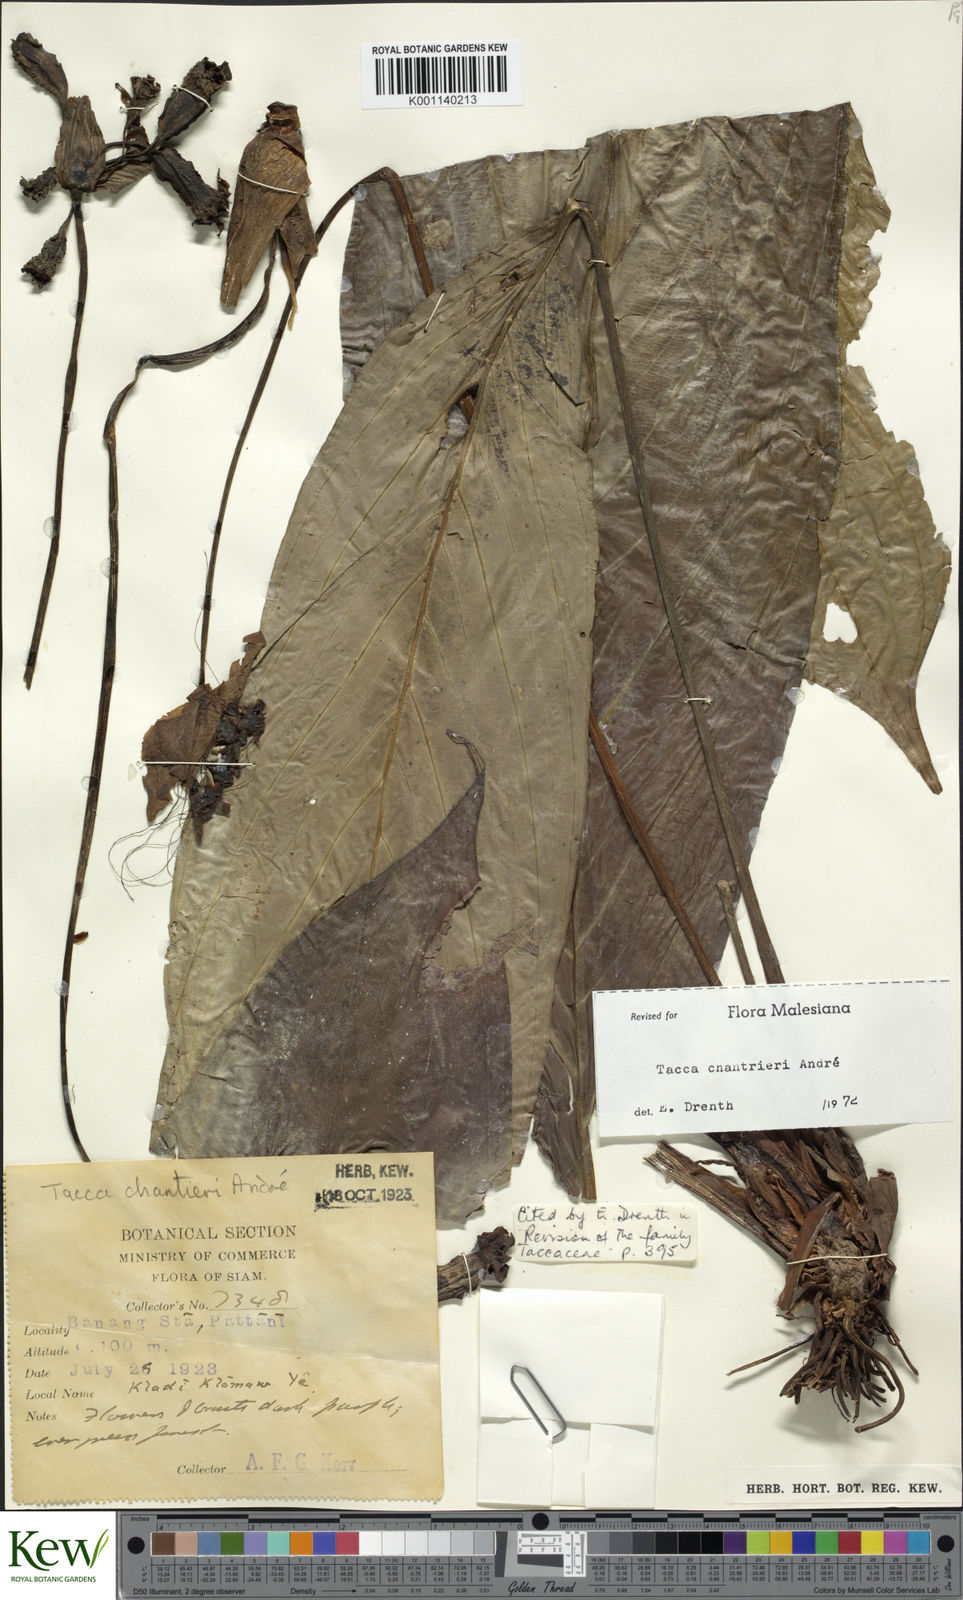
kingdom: Plantae
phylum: Tracheophyta
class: Liliopsida
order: Dioscoreales
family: Dioscoreaceae
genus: Tacca
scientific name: Tacca
